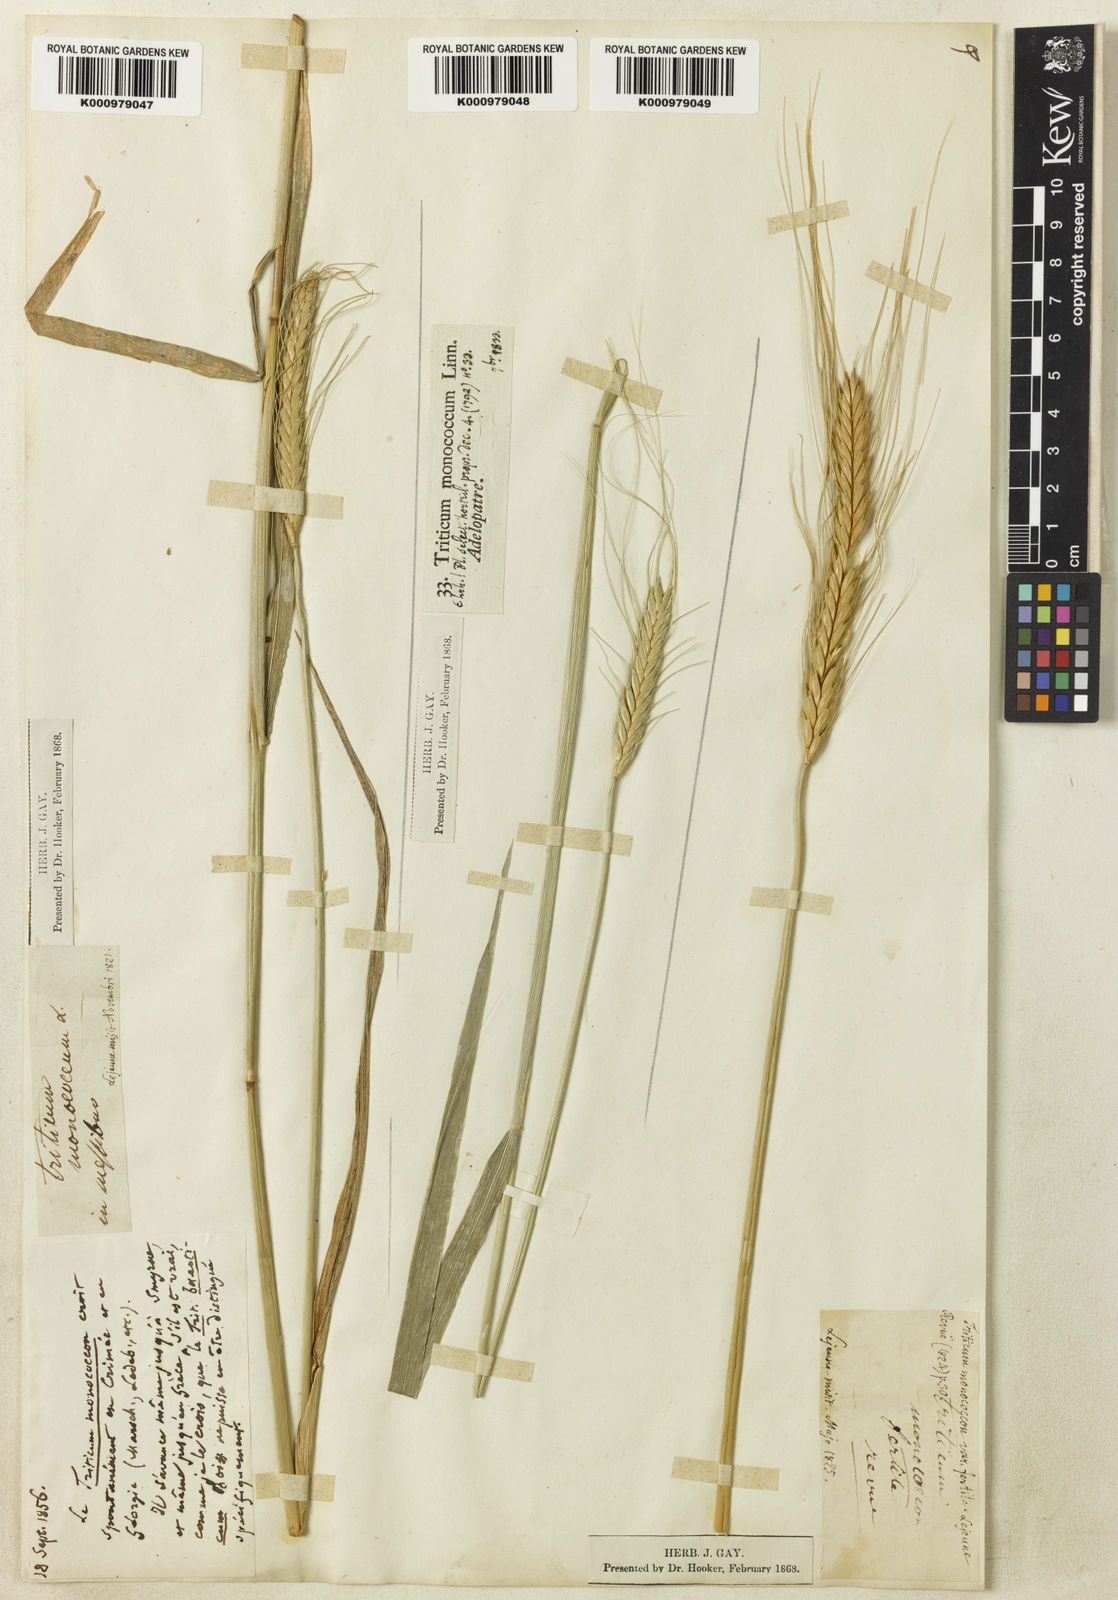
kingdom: Plantae
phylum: Tracheophyta
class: Liliopsida
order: Poales
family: Poaceae
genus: Triticum
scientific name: Triticum monococcum
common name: Einkorn
